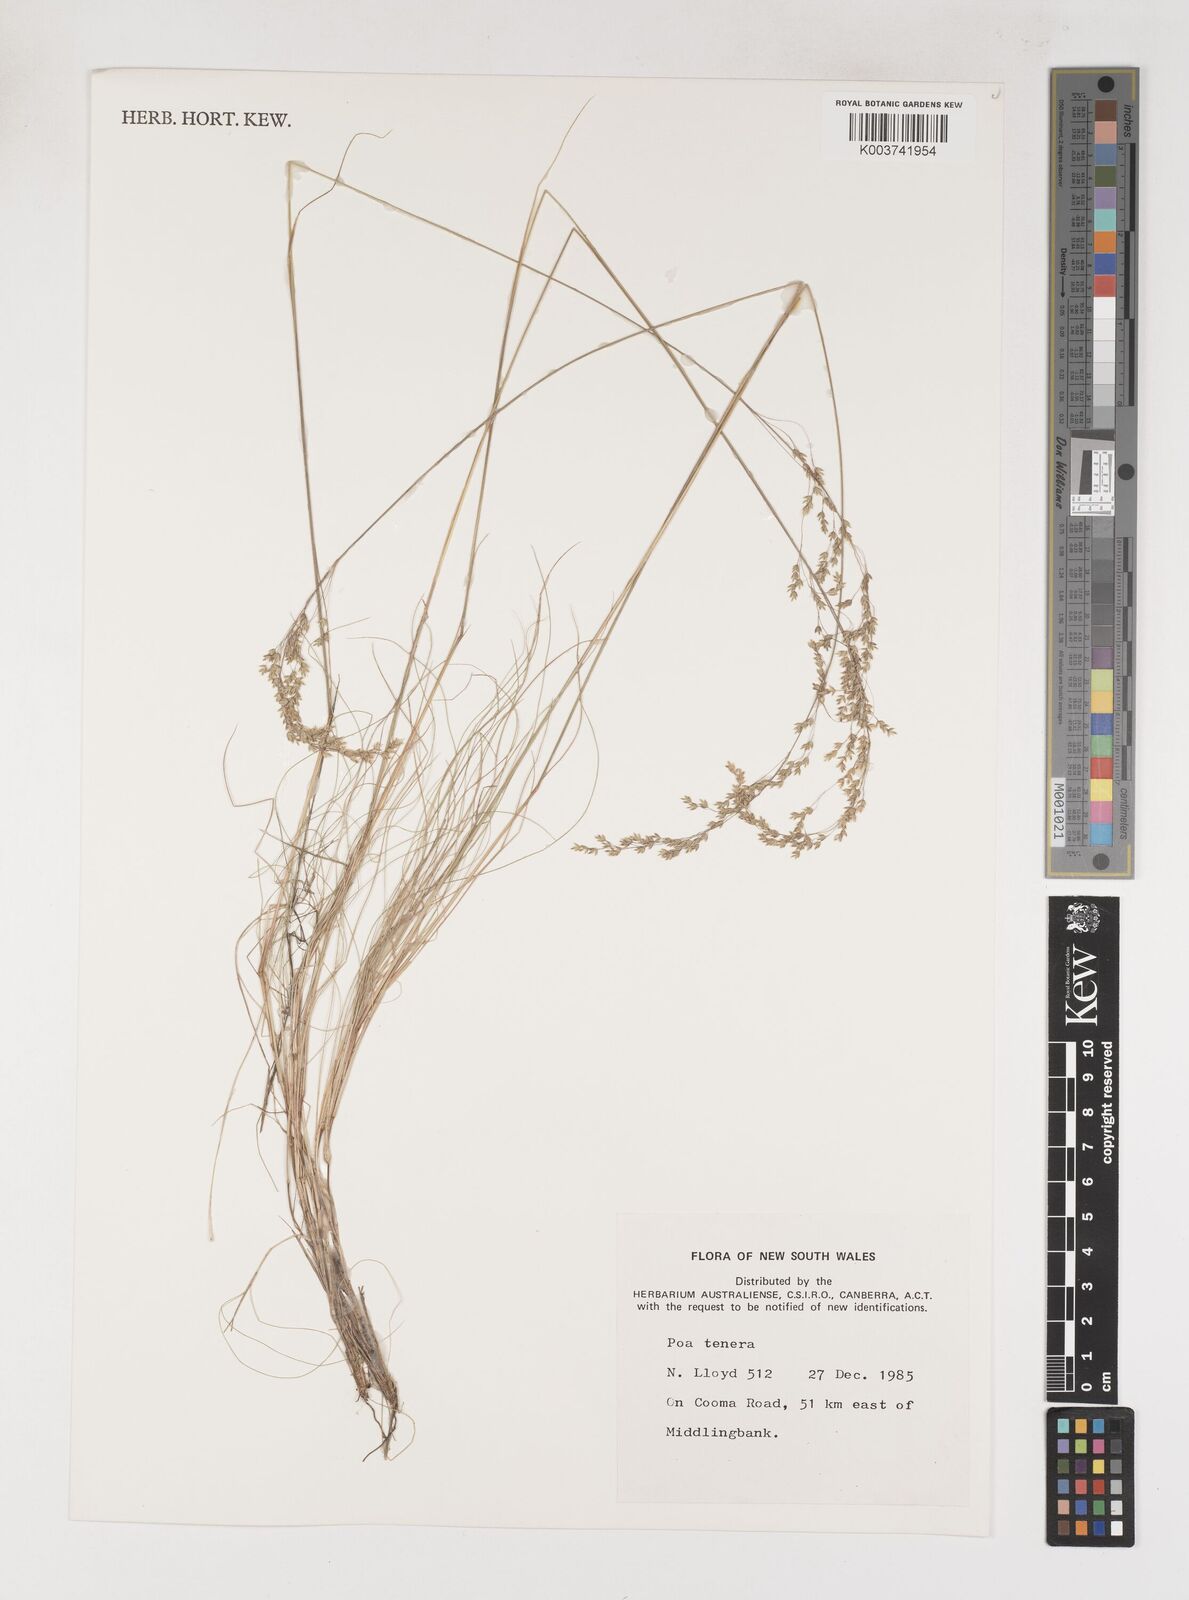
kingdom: Plantae
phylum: Tracheophyta
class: Liliopsida
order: Poales
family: Poaceae
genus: Poa
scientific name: Poa tenera
